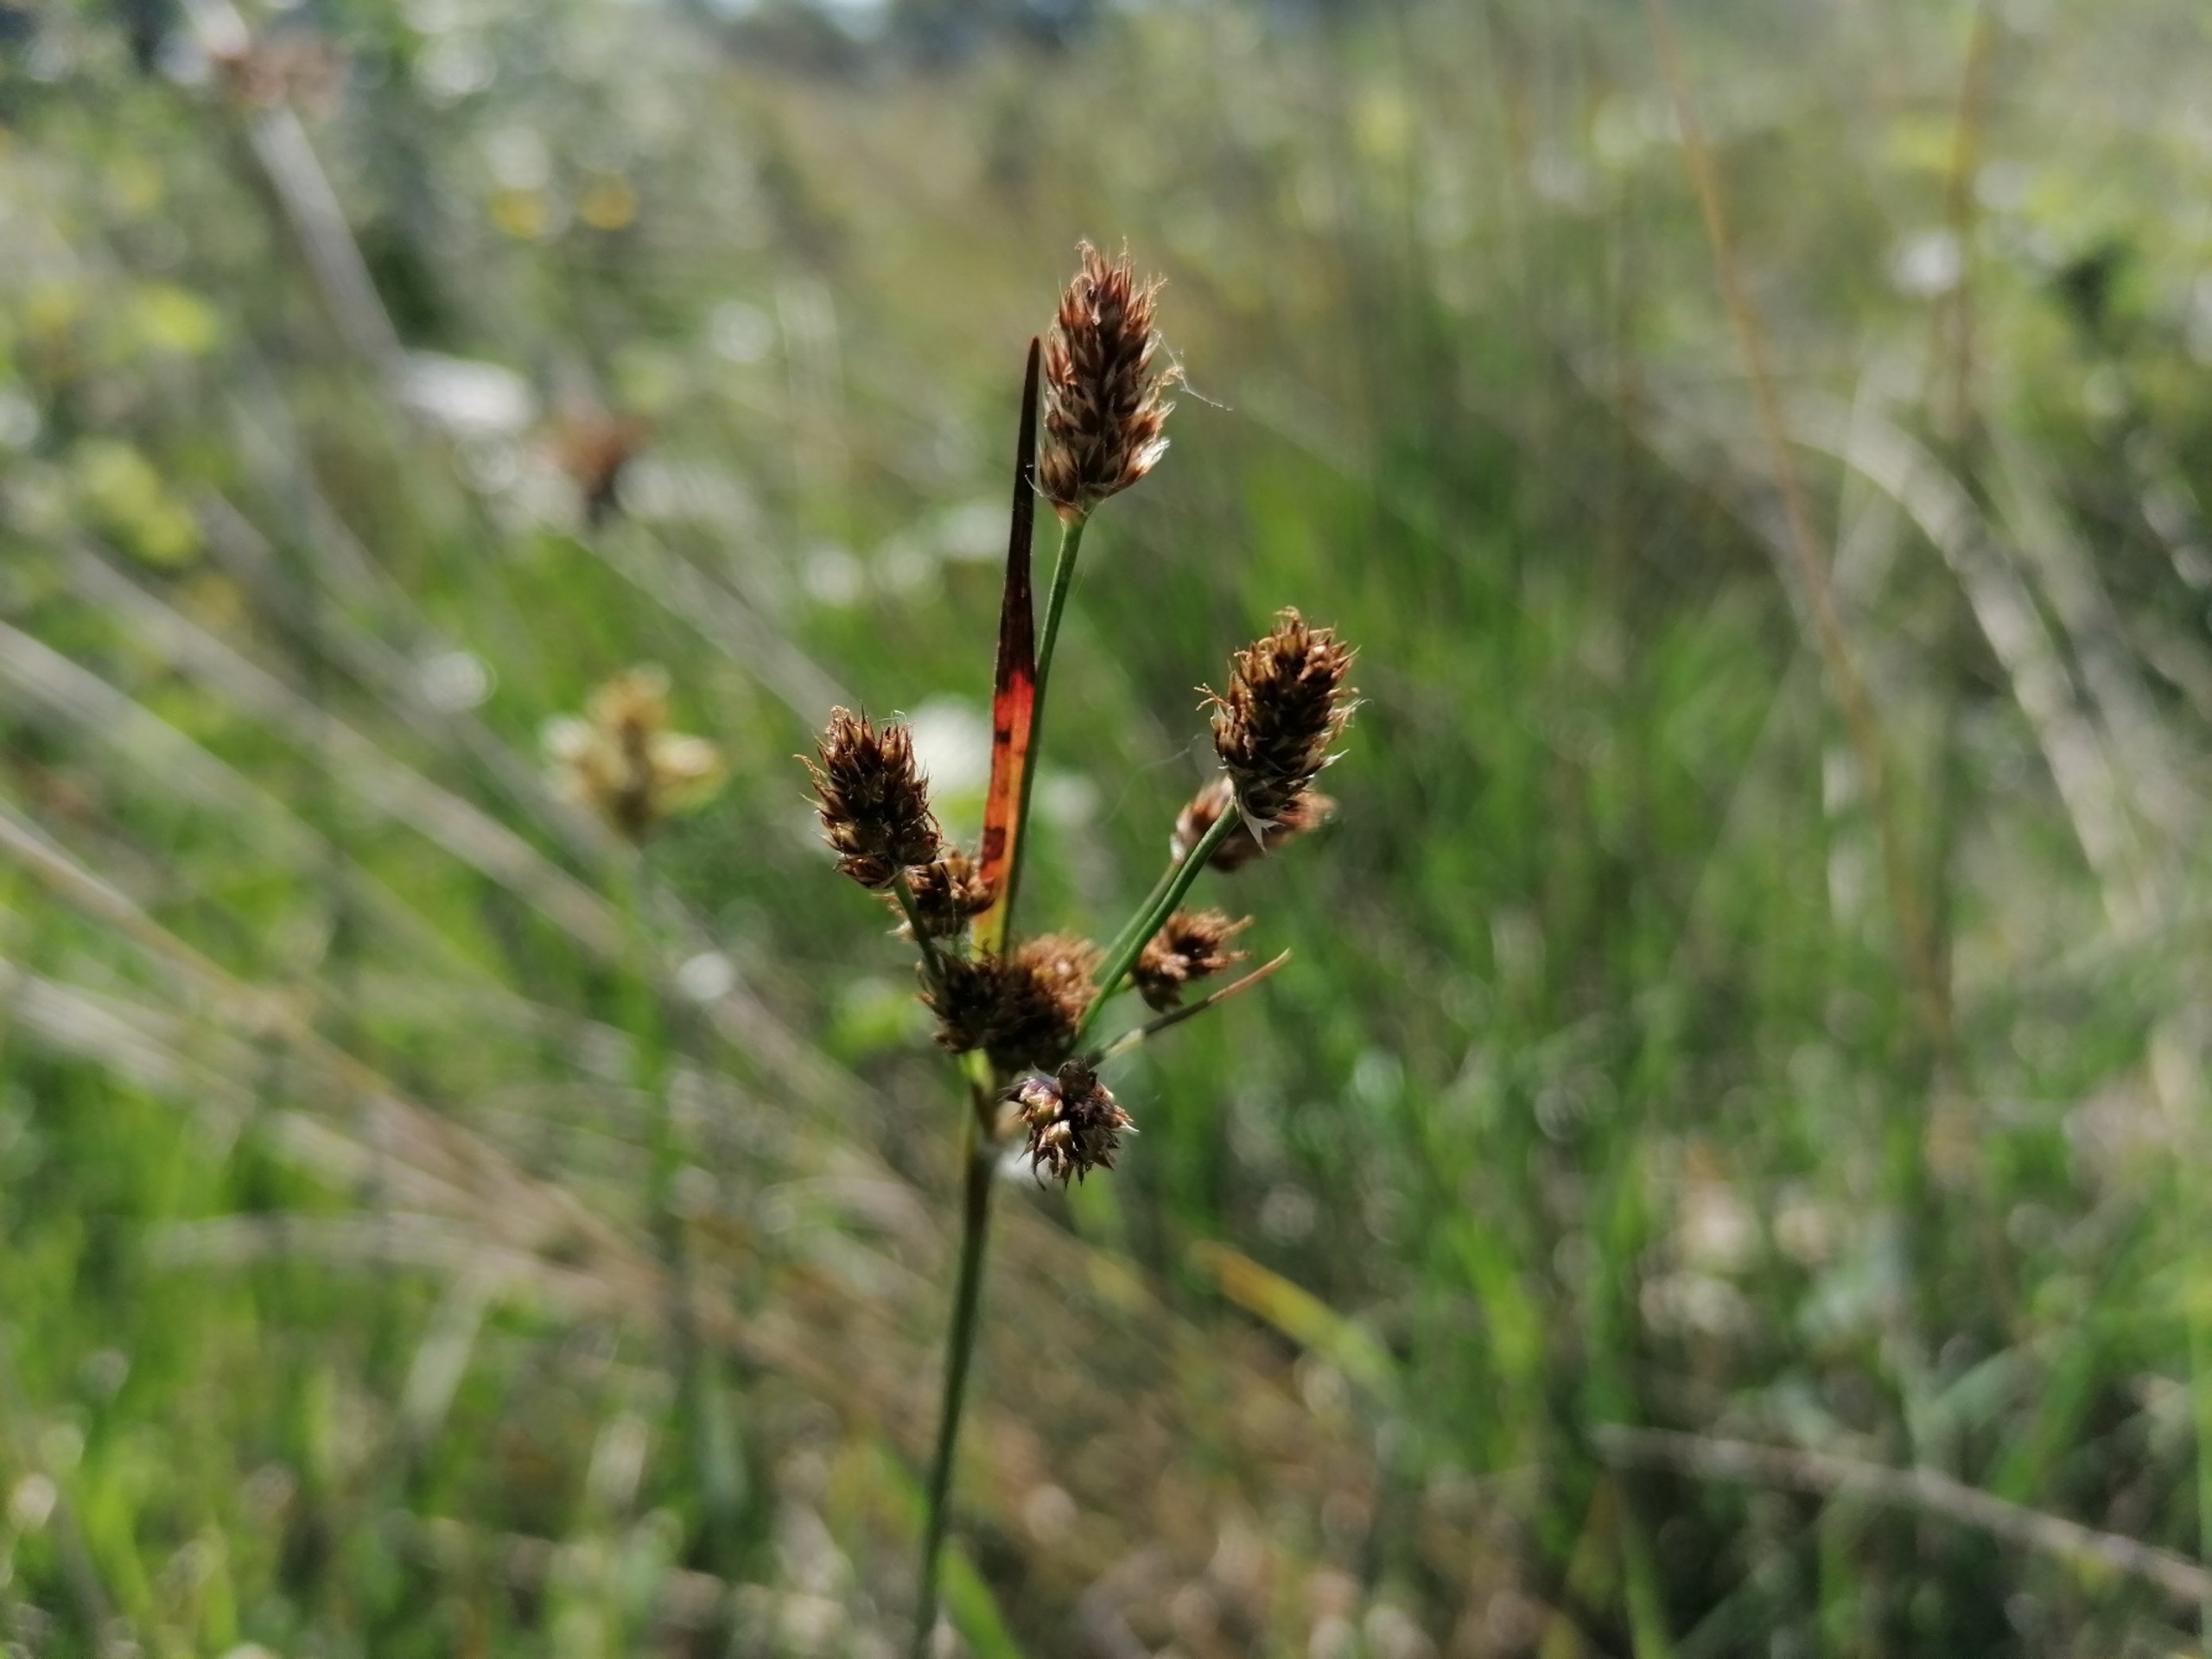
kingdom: Plantae
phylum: Tracheophyta
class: Liliopsida
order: Poales
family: Juncaceae
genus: Luzula
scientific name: Luzula multiflora
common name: Mangeblomstret frytle
